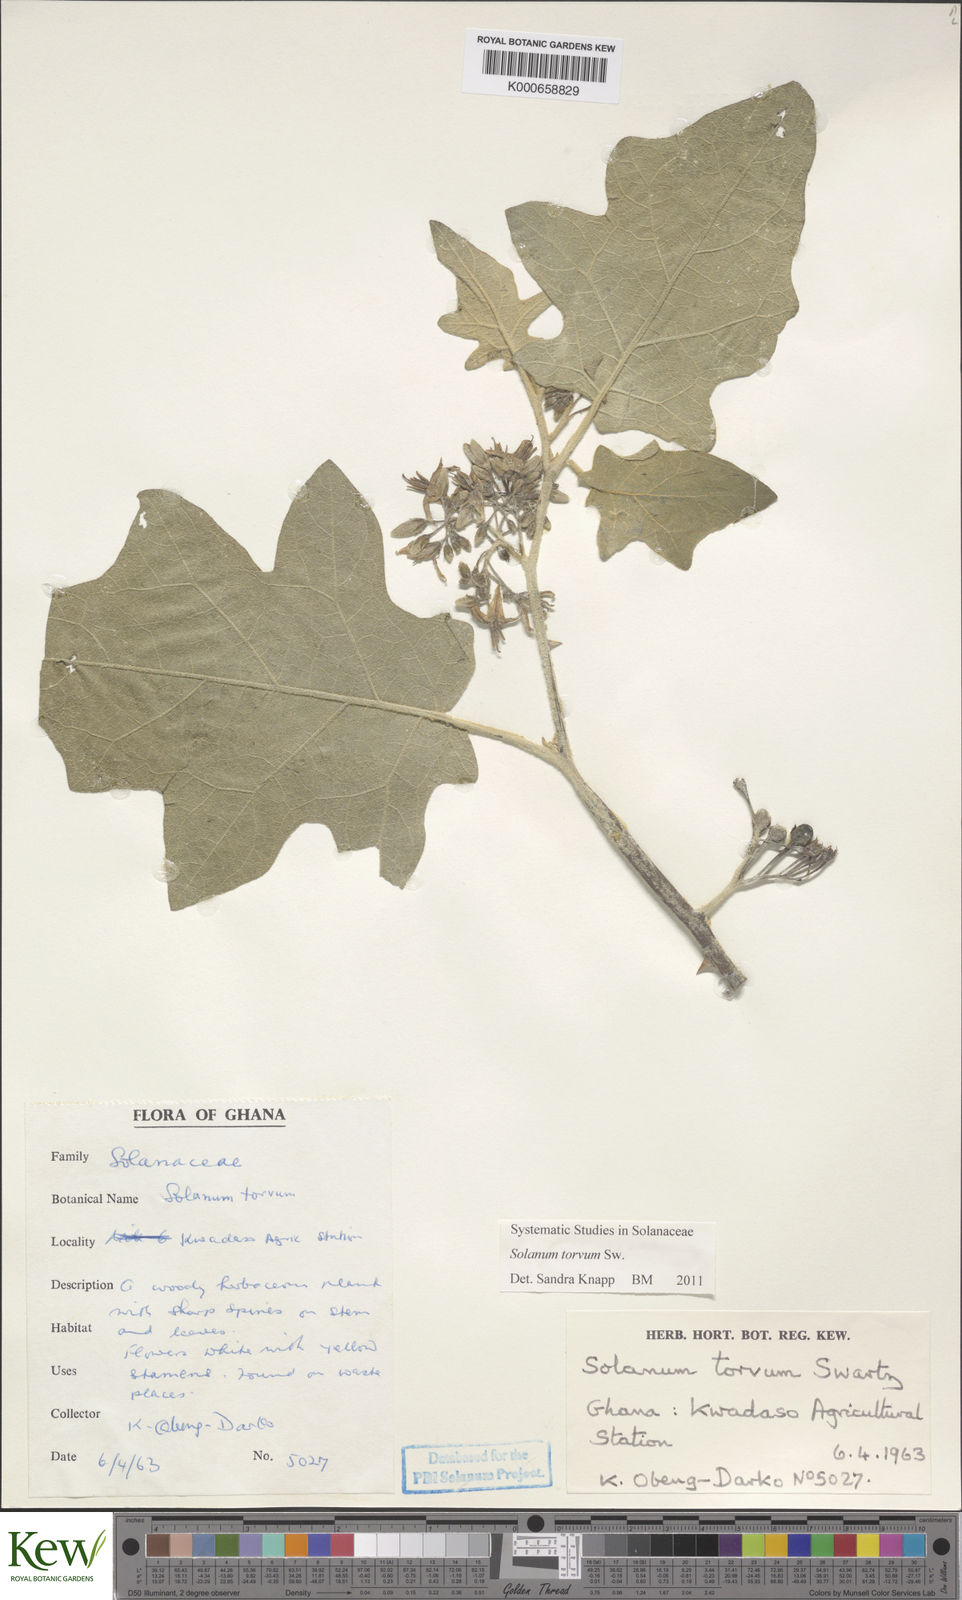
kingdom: Plantae
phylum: Tracheophyta
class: Magnoliopsida
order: Solanales
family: Solanaceae
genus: Solanum
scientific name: Solanum torvum
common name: Turkey berry
